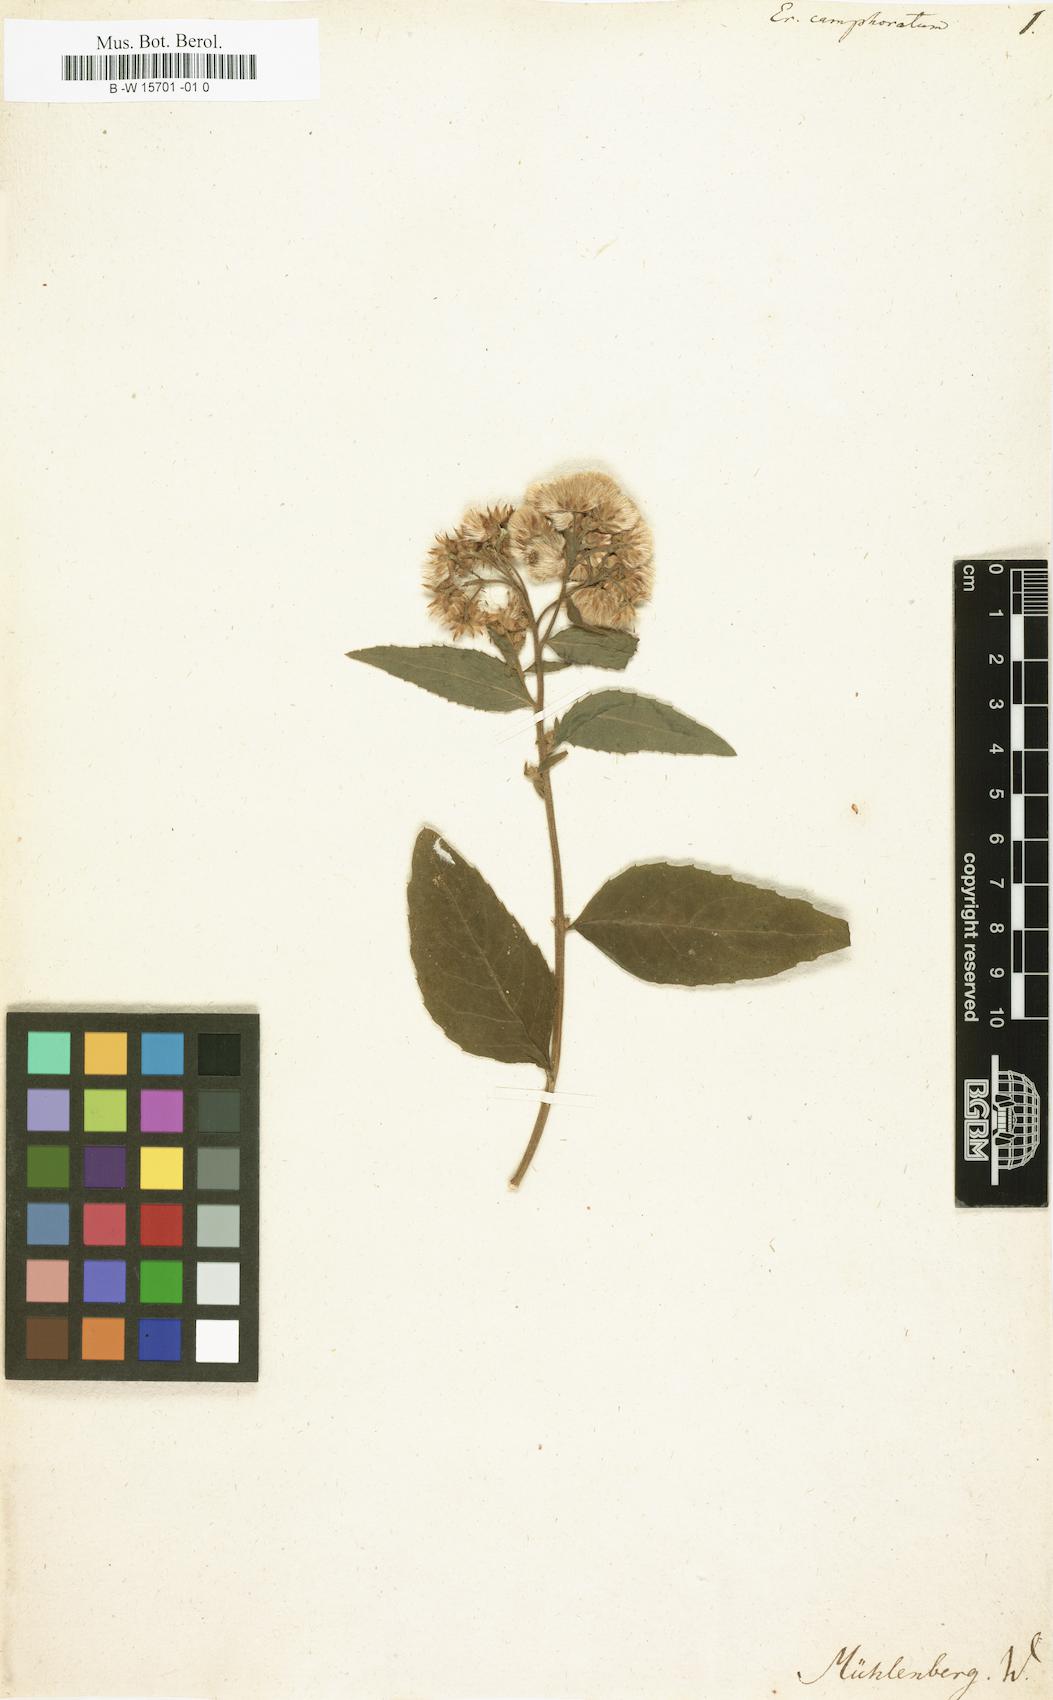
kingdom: Plantae
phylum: Tracheophyta
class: Magnoliopsida
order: Asterales
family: Asteraceae
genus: Pluchea
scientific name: Pluchea camphorata
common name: Camphor pluchea
